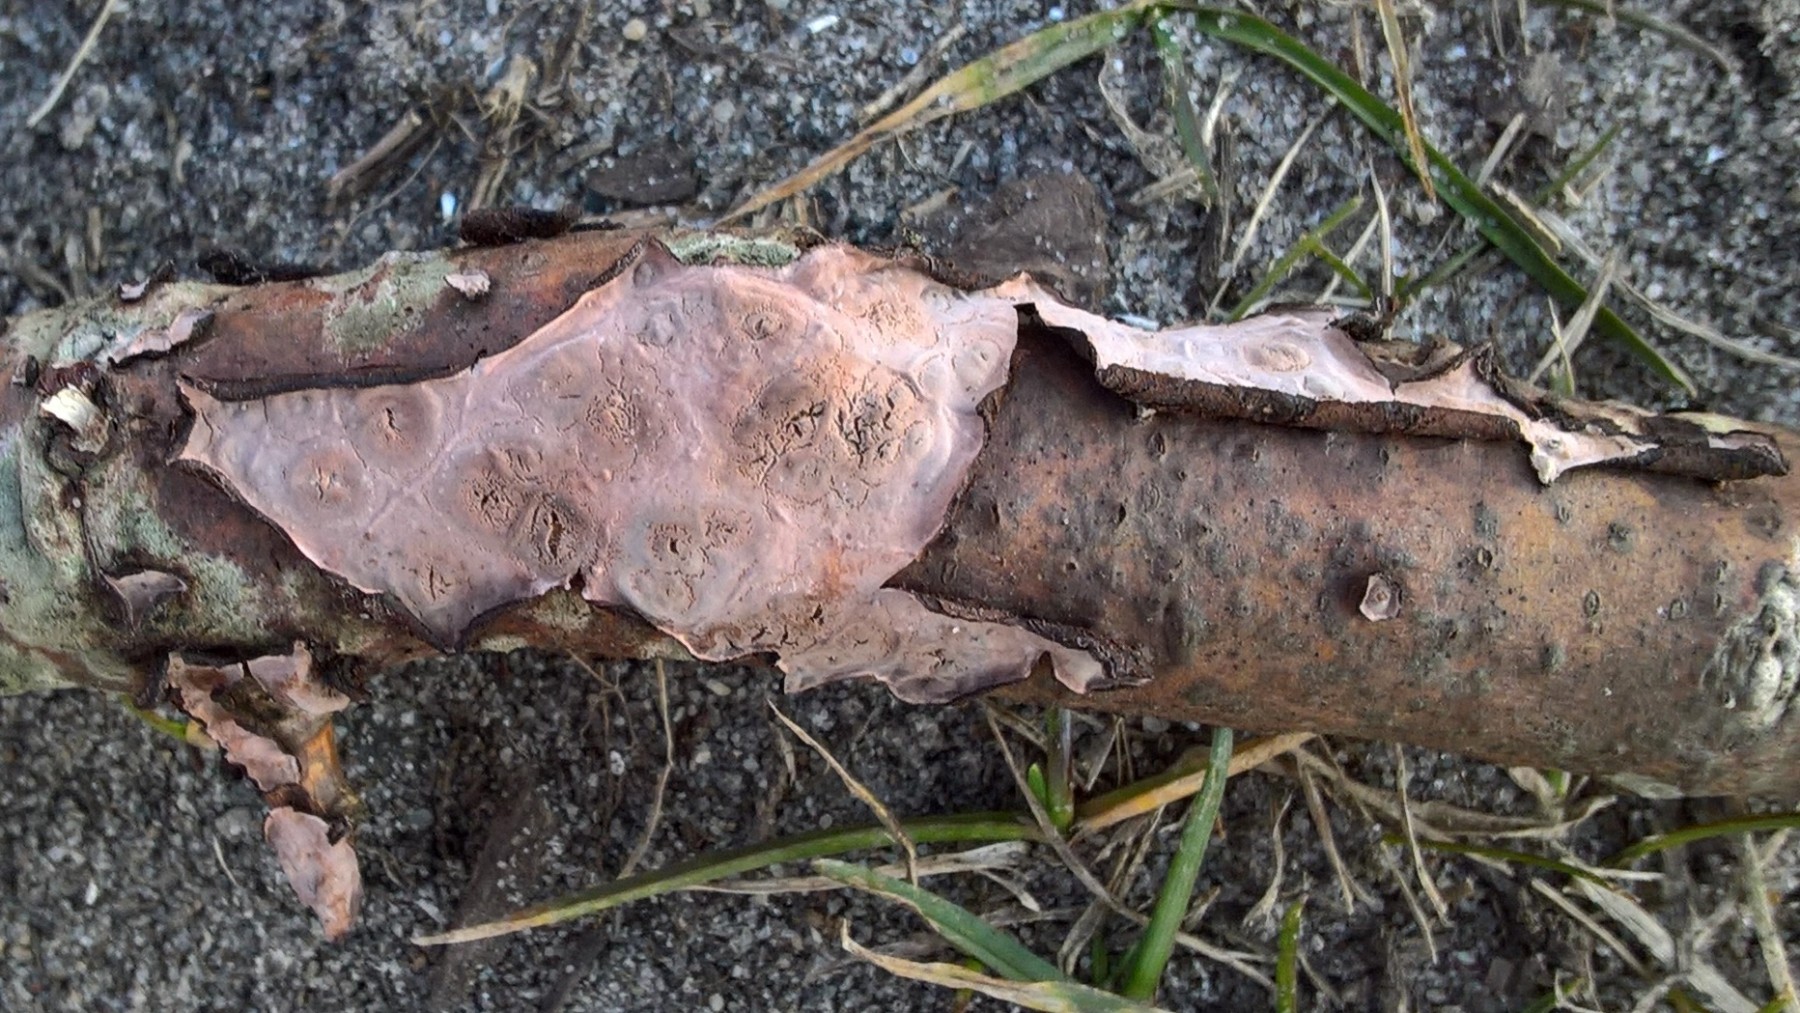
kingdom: Fungi
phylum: Basidiomycota
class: Agaricomycetes
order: Russulales
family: Peniophoraceae
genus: Peniophora
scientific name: Peniophora quercina
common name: ege-voksskind
